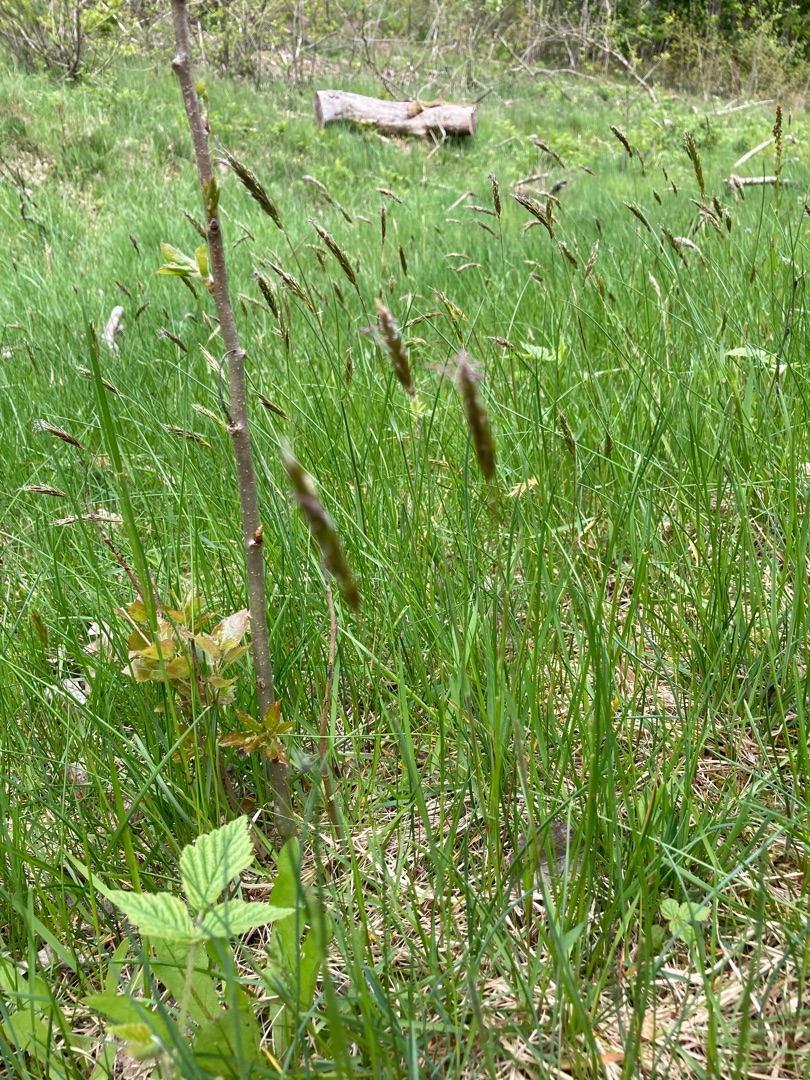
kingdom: Plantae
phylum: Tracheophyta
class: Liliopsida
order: Poales
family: Poaceae
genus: Anthoxanthum
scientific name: Anthoxanthum odoratum
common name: Vellugtende gulaks
